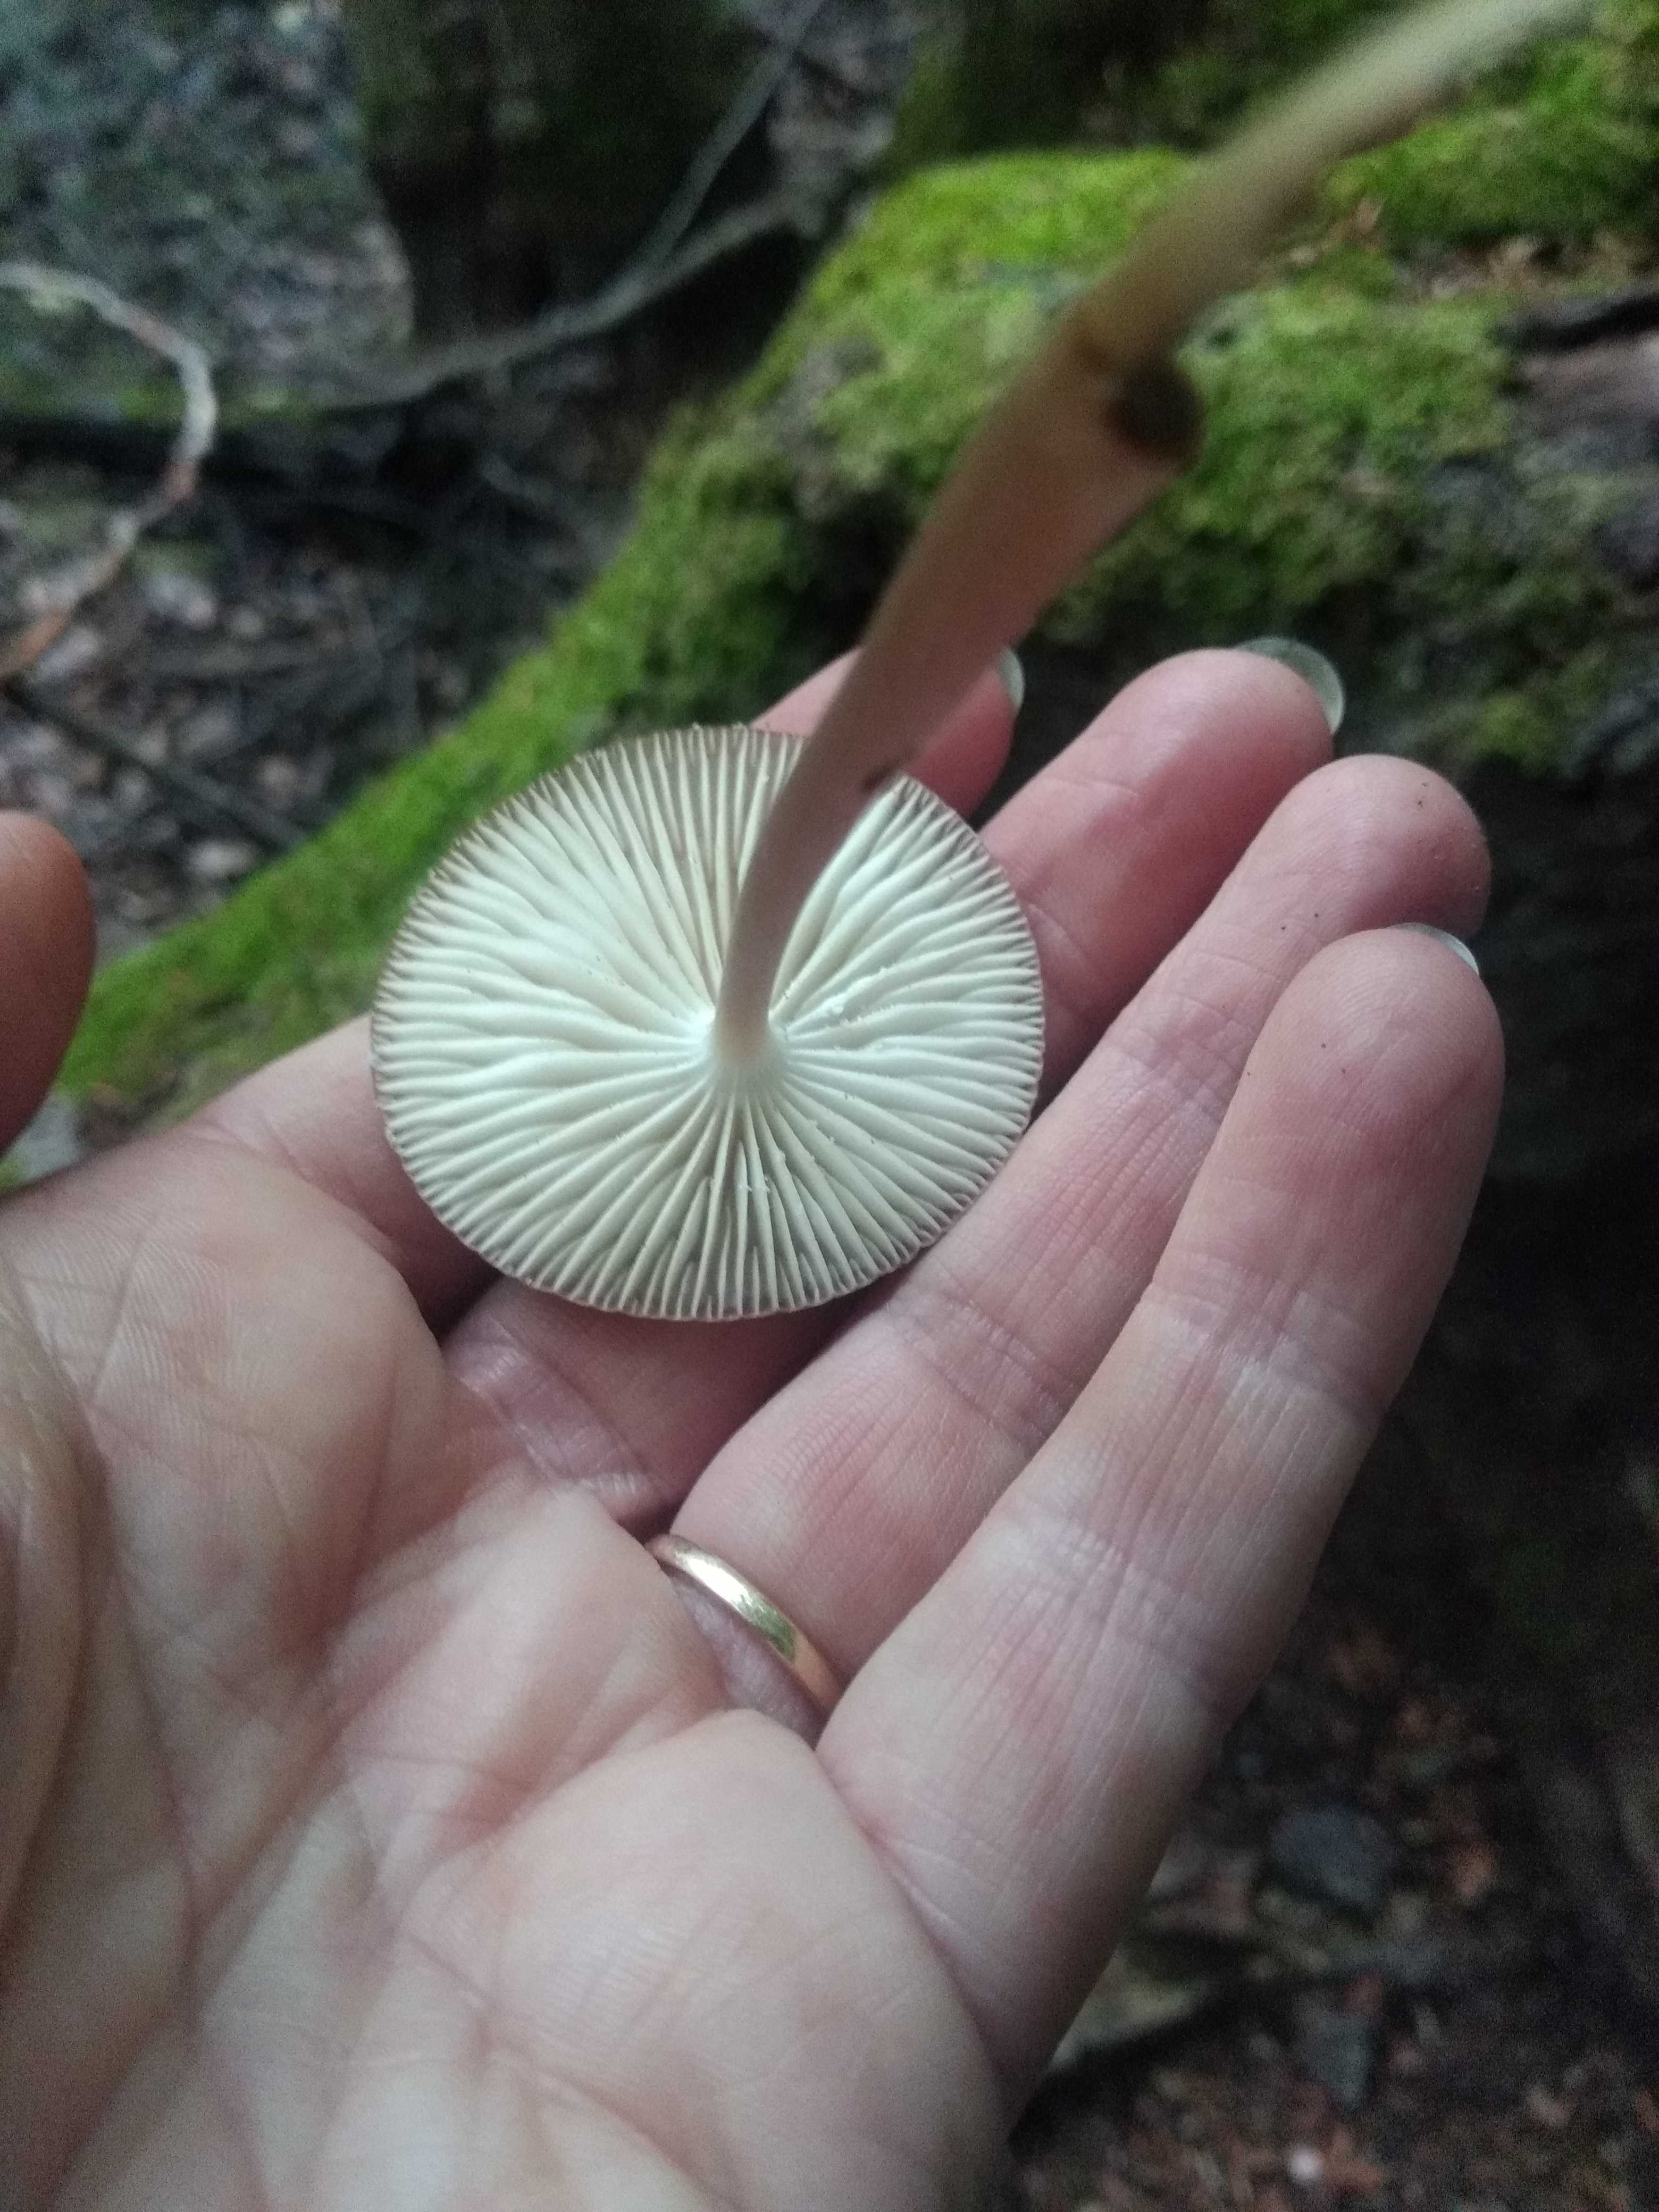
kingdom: Fungi
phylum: Basidiomycota
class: Agaricomycetes
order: Agaricales
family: Physalacriaceae
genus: Hymenopellis
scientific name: Hymenopellis radicata
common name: almindelig pælerodshat
